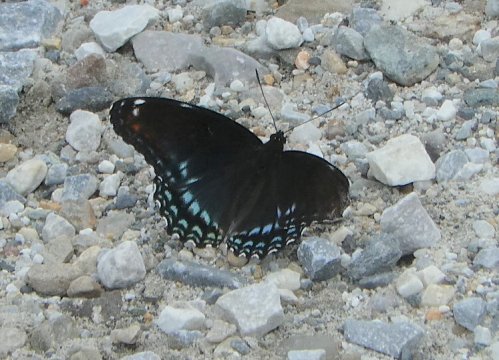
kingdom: Animalia
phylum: Arthropoda
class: Insecta
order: Lepidoptera
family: Nymphalidae
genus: Limenitis
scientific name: Limenitis arthemis
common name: Red-spotted Admiral
